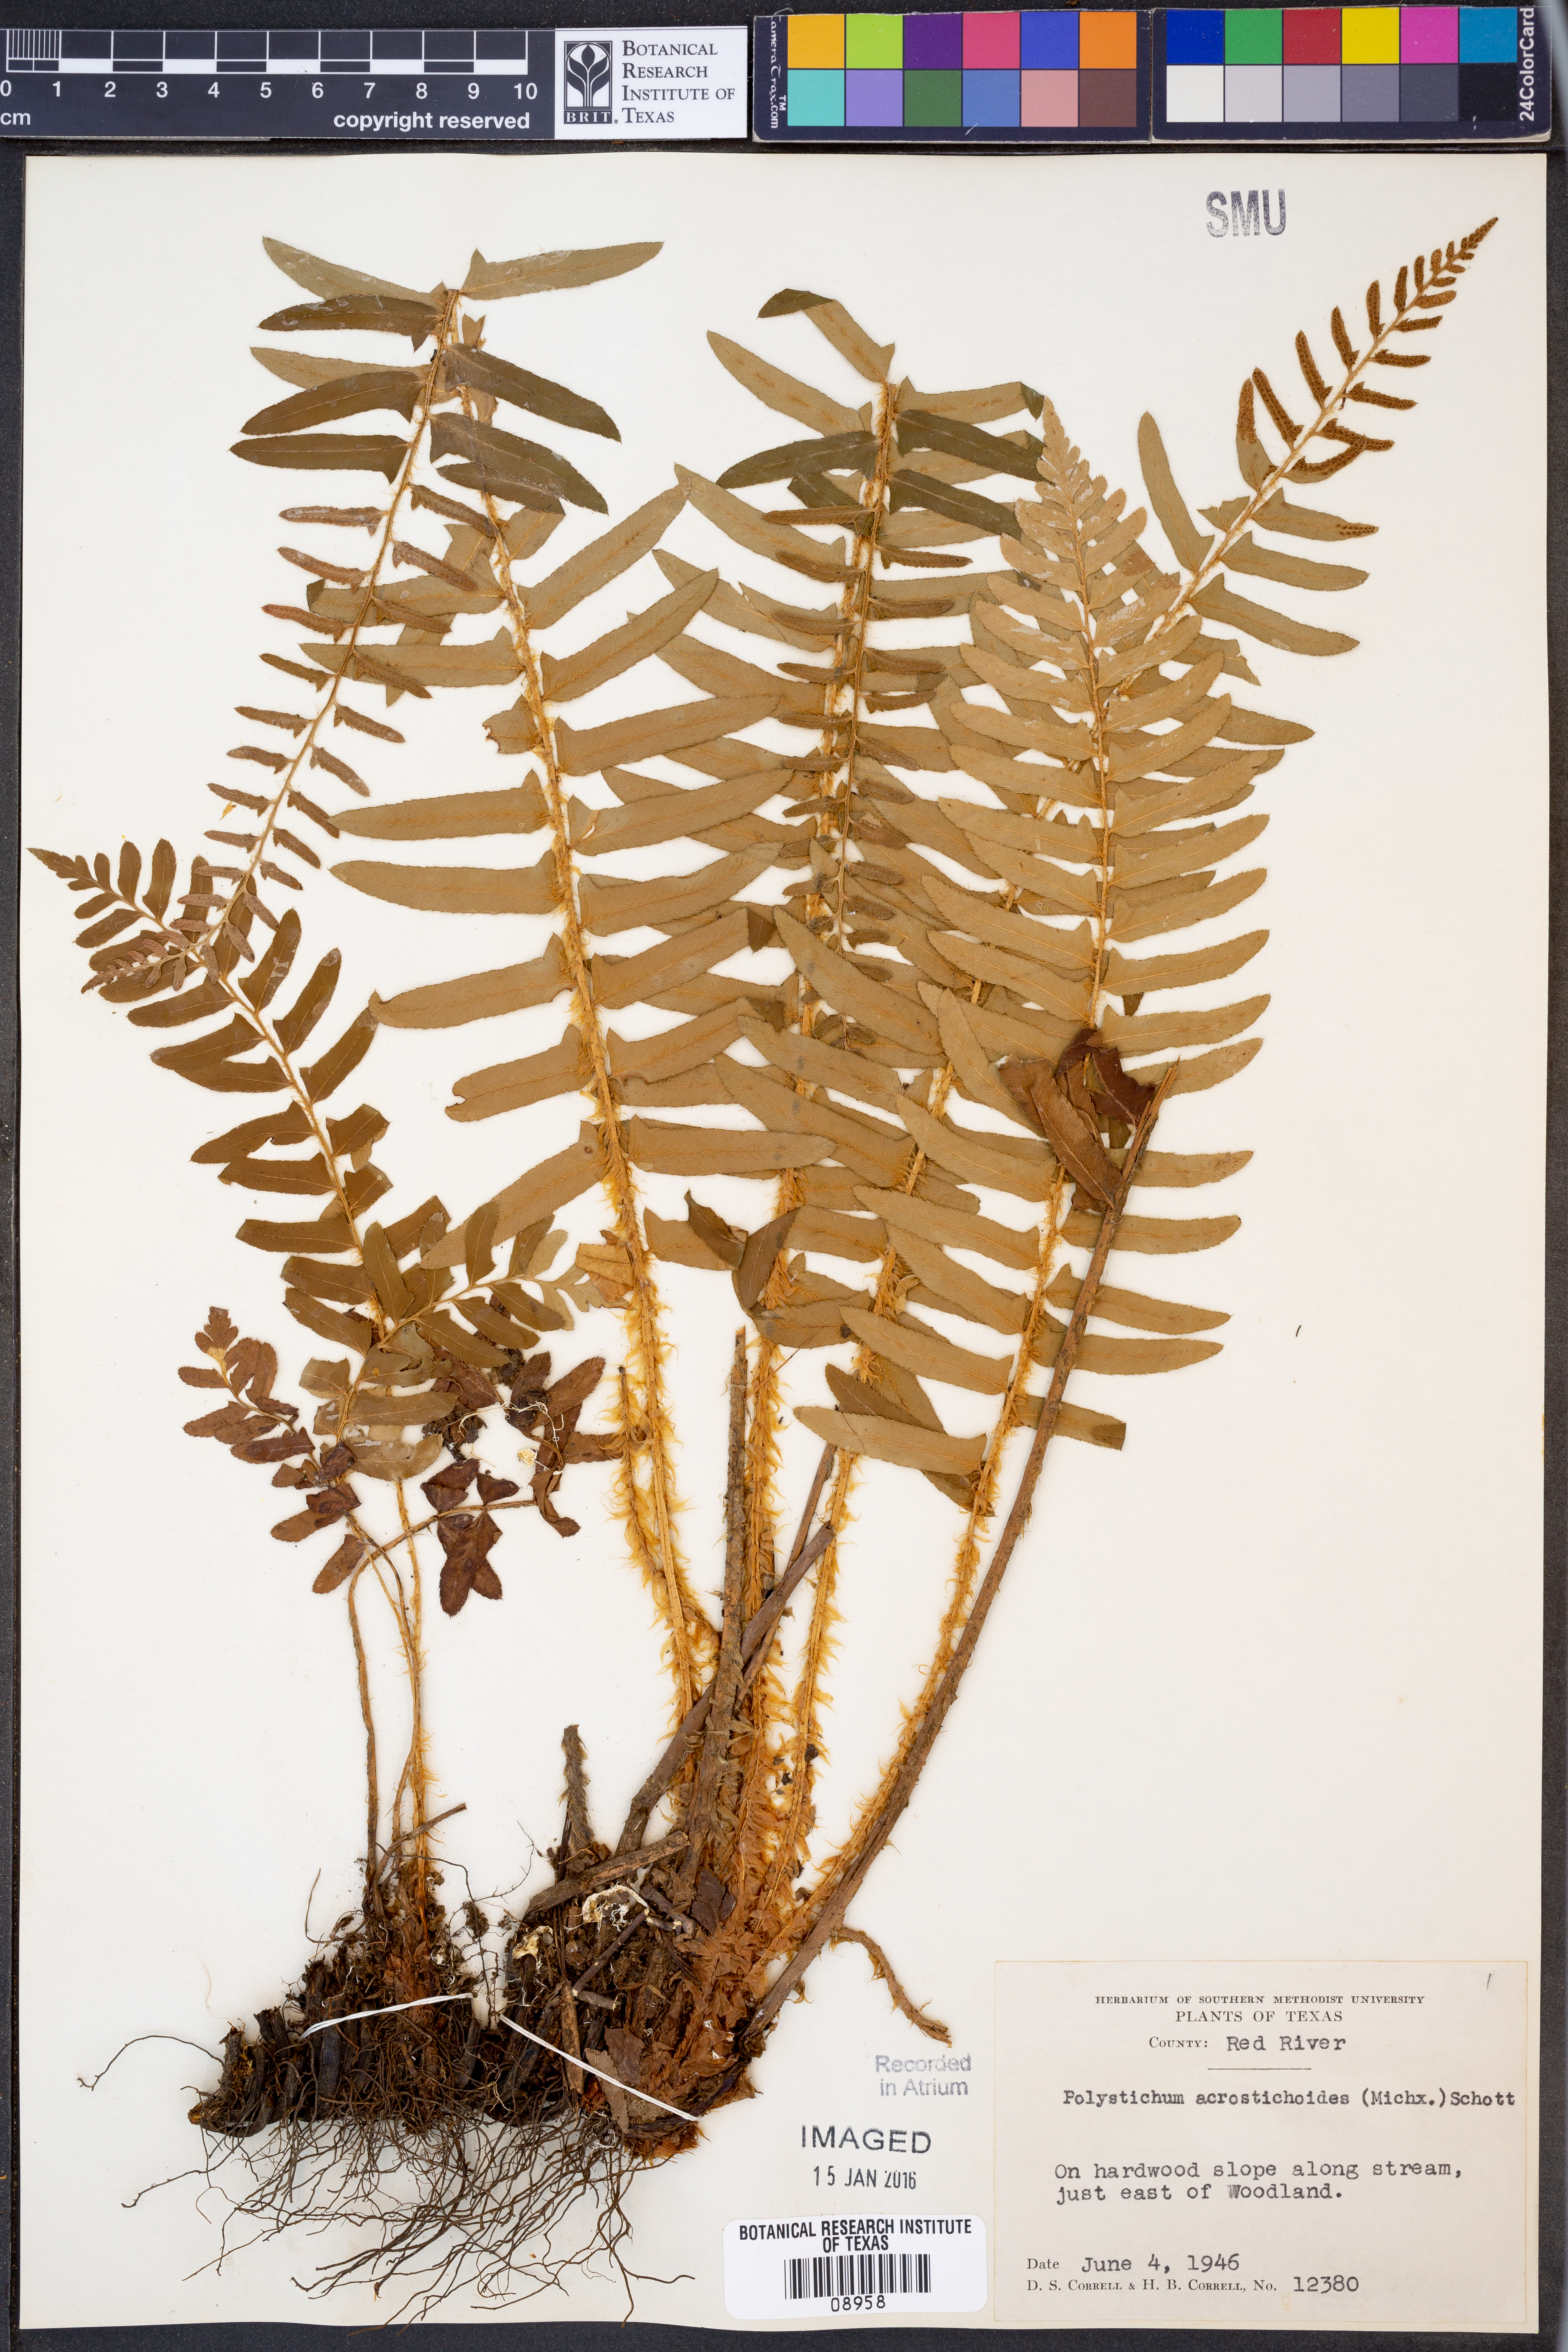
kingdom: Plantae
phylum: Tracheophyta
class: Polypodiopsida
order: Polypodiales
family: Dryopteridaceae
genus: Polystichum
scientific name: Polystichum acrostichoides
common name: Christmas fern
